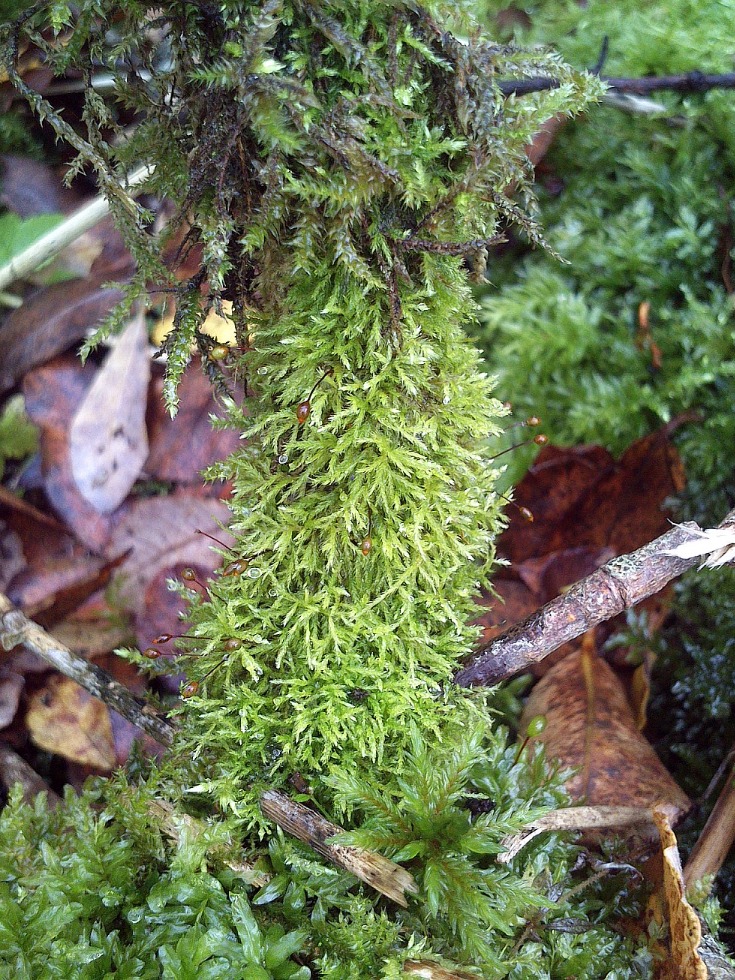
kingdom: Plantae
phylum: Bryophyta
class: Bryopsida
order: Hypnales
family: Brachytheciaceae
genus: Sciuro-hypnum
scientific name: Sciuro-hypnum reflexum
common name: Elle-kortkapsel
